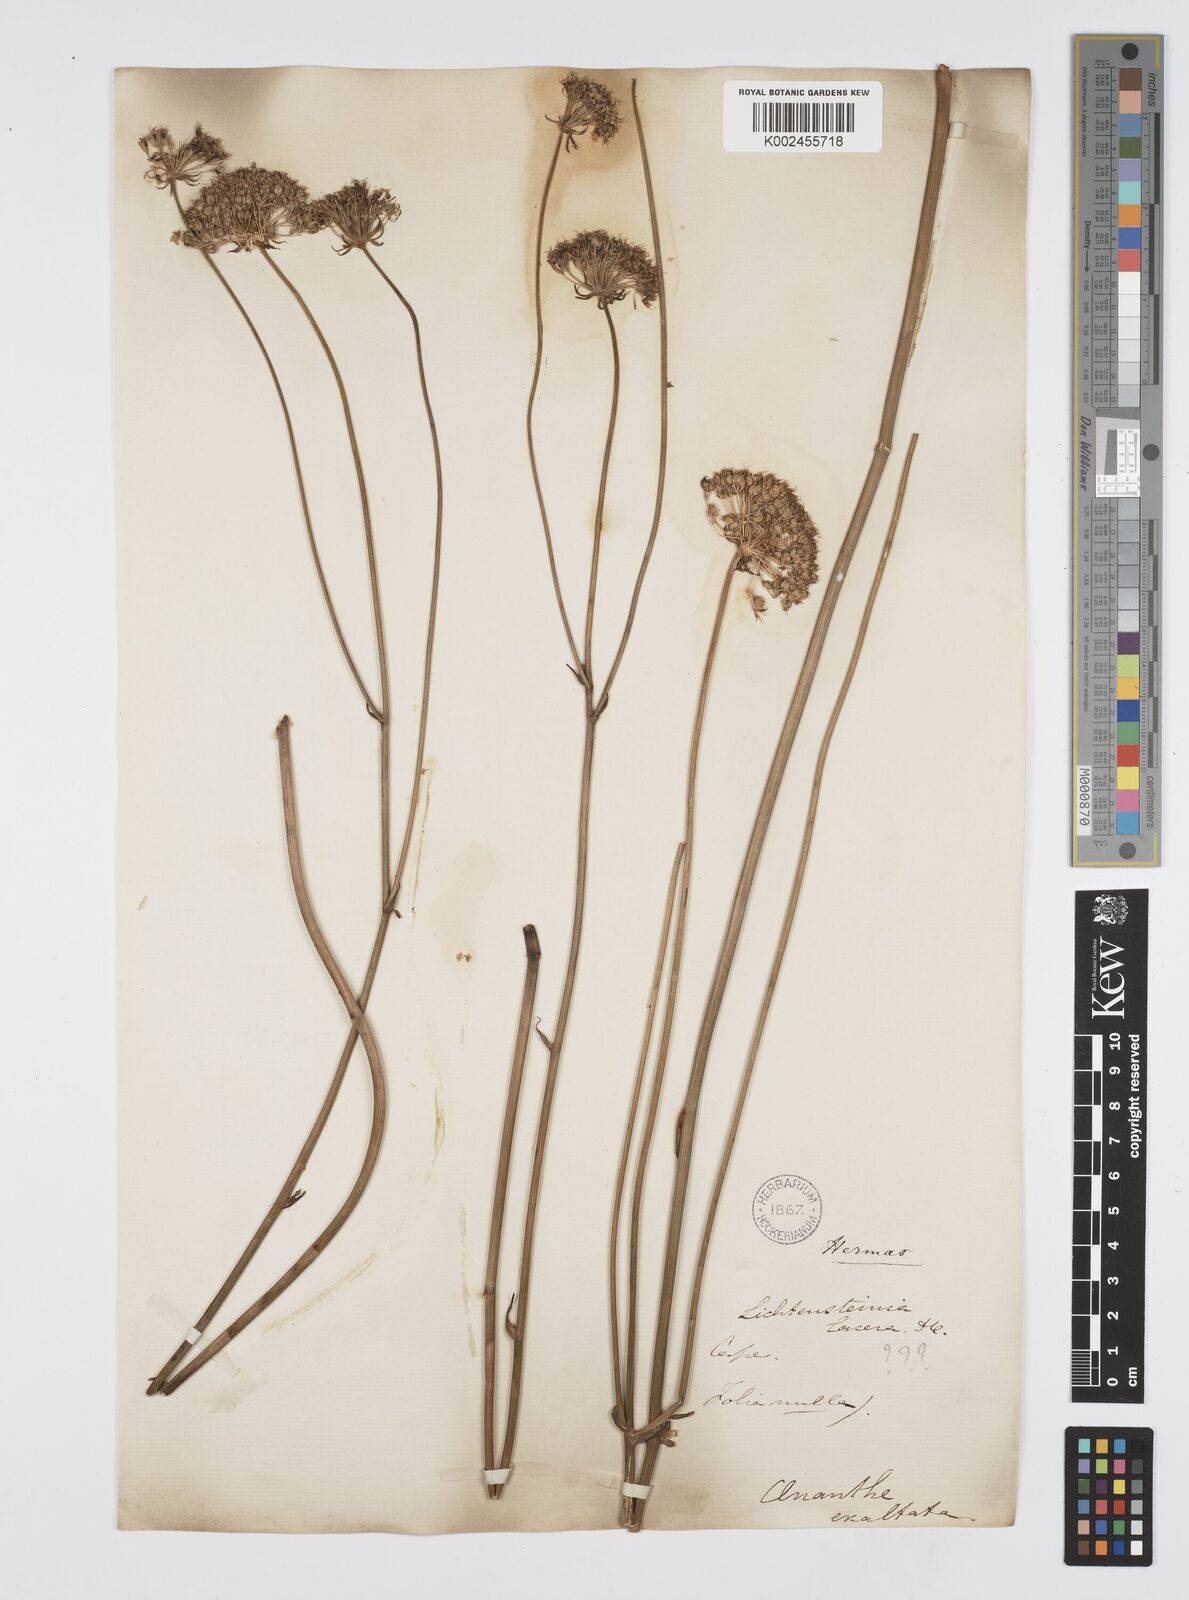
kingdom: Plantae
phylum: Tracheophyta
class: Magnoliopsida
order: Apiales
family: Apiaceae
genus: Hermas
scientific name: Hermas capitata
